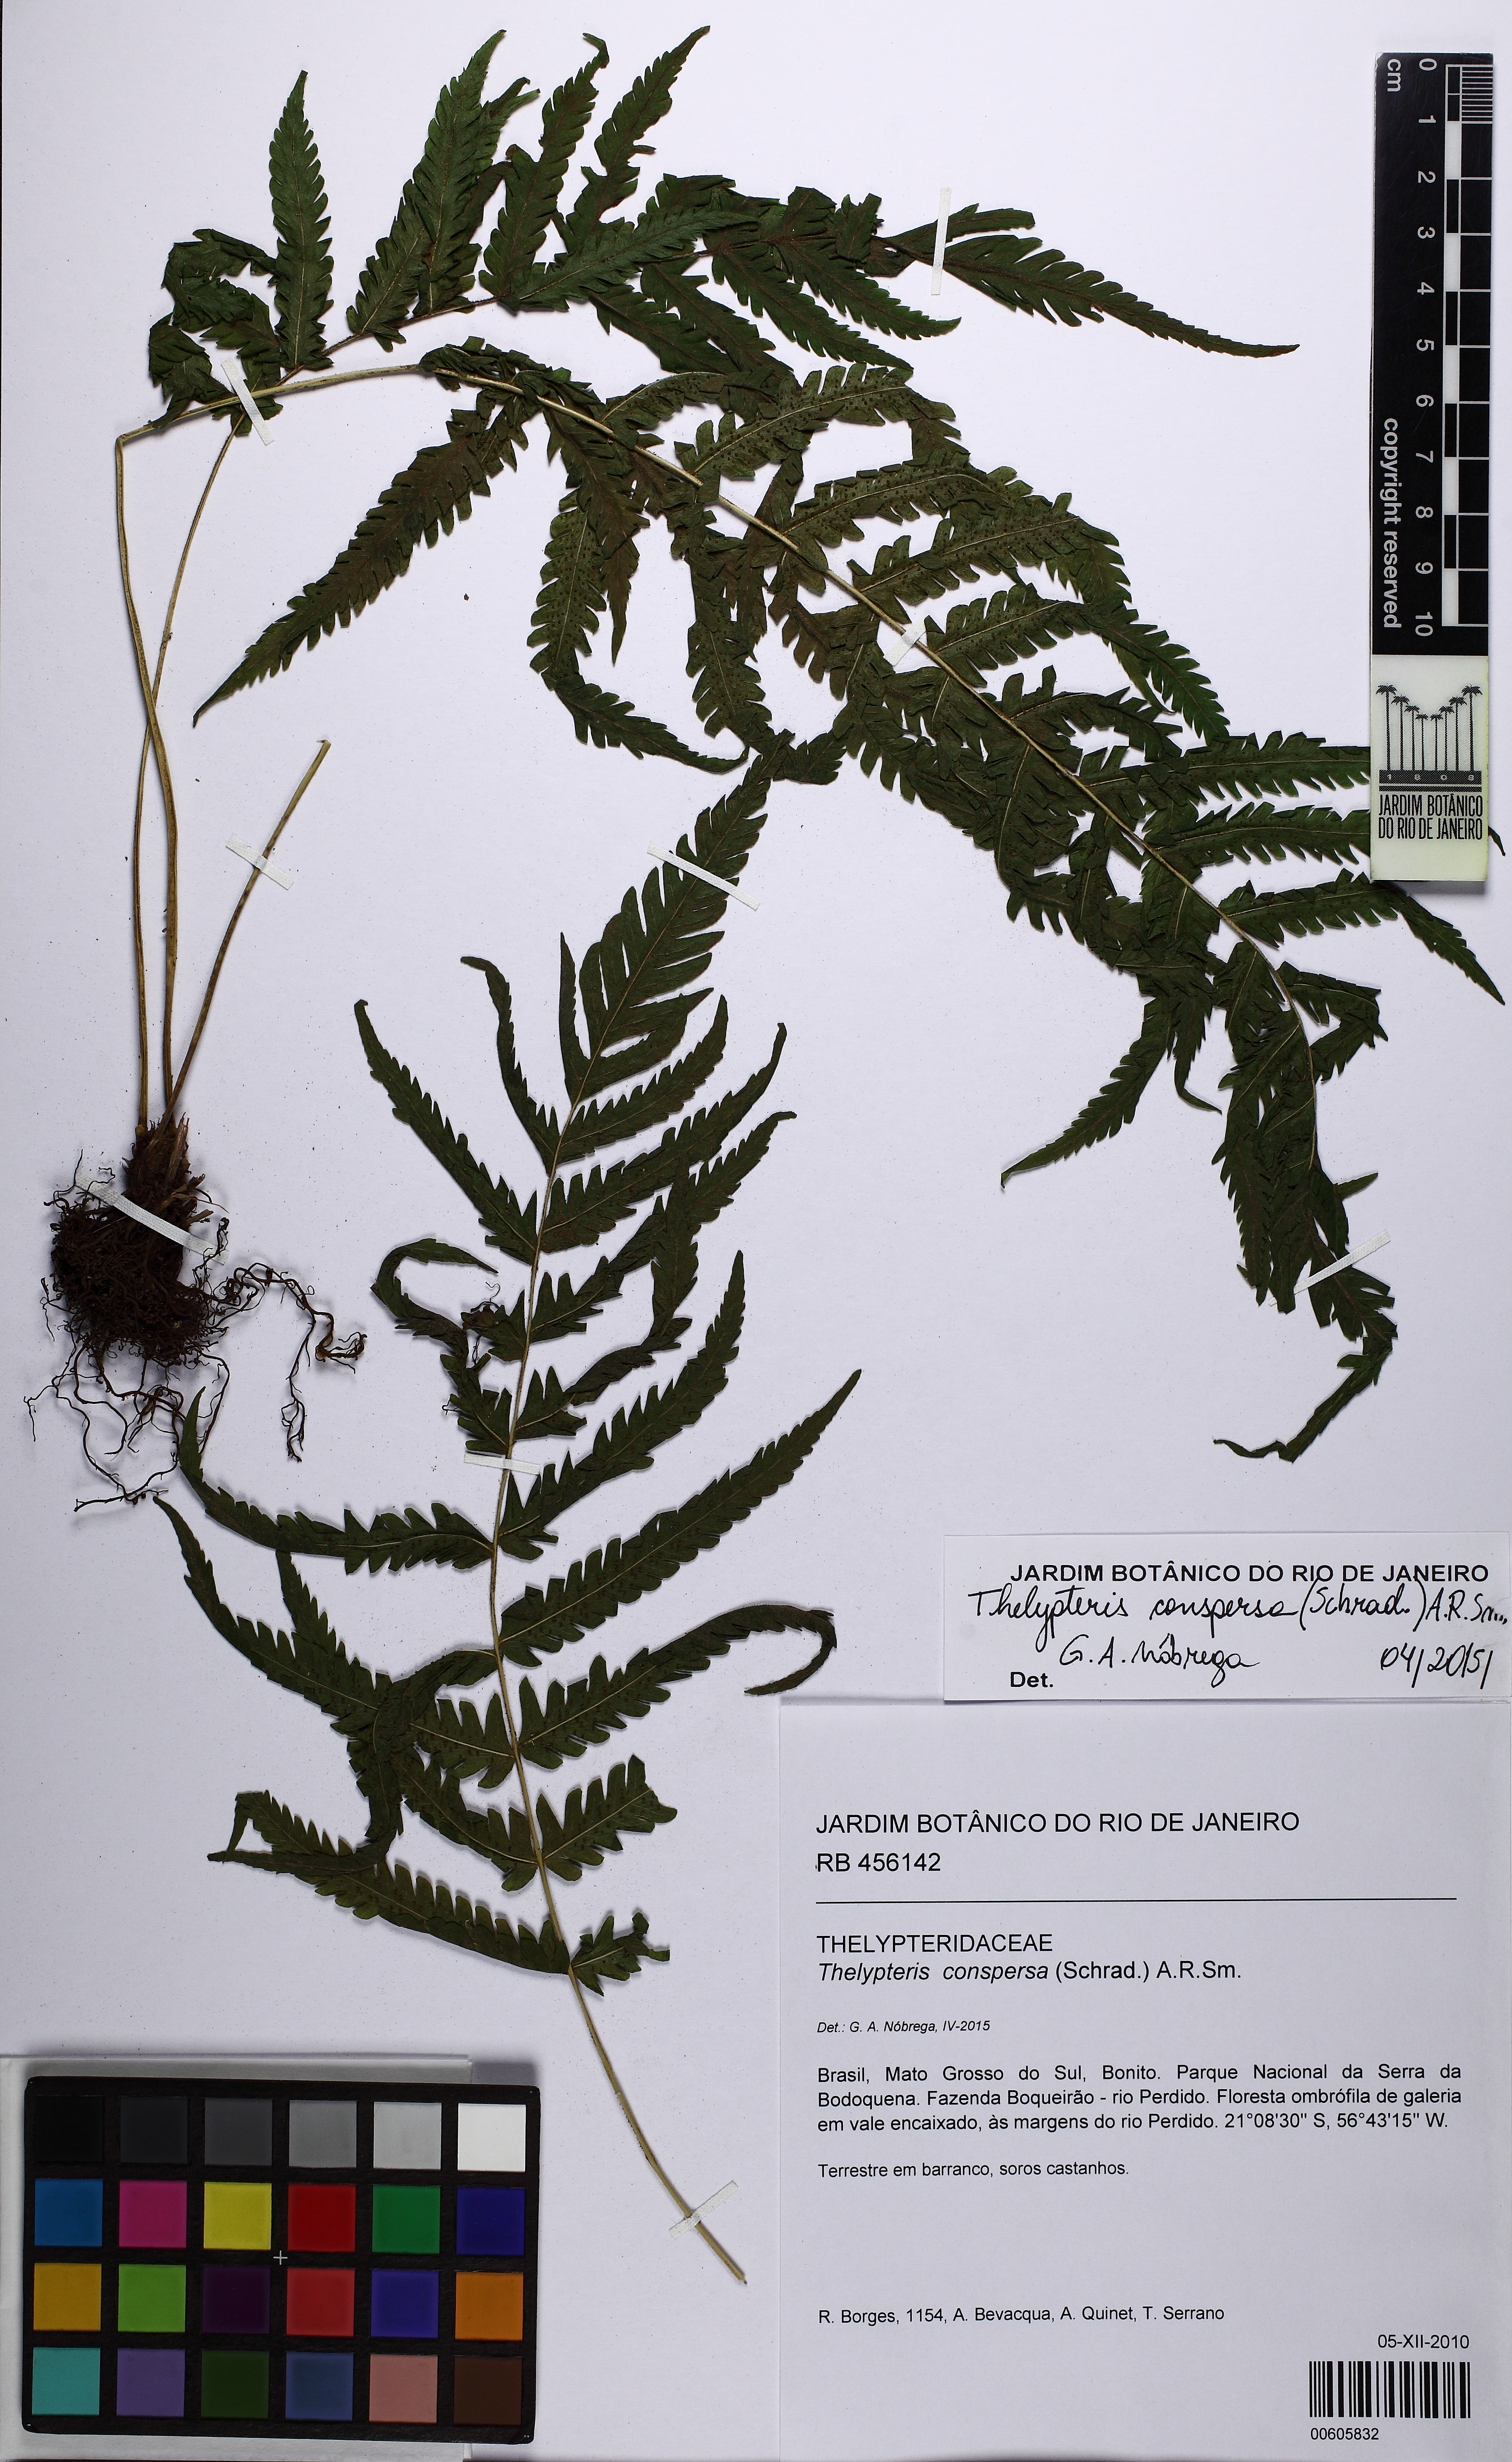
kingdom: Plantae
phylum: Tracheophyta
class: Polypodiopsida
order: Polypodiales
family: Thelypteridaceae
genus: Christella
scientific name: Christella conspersa
